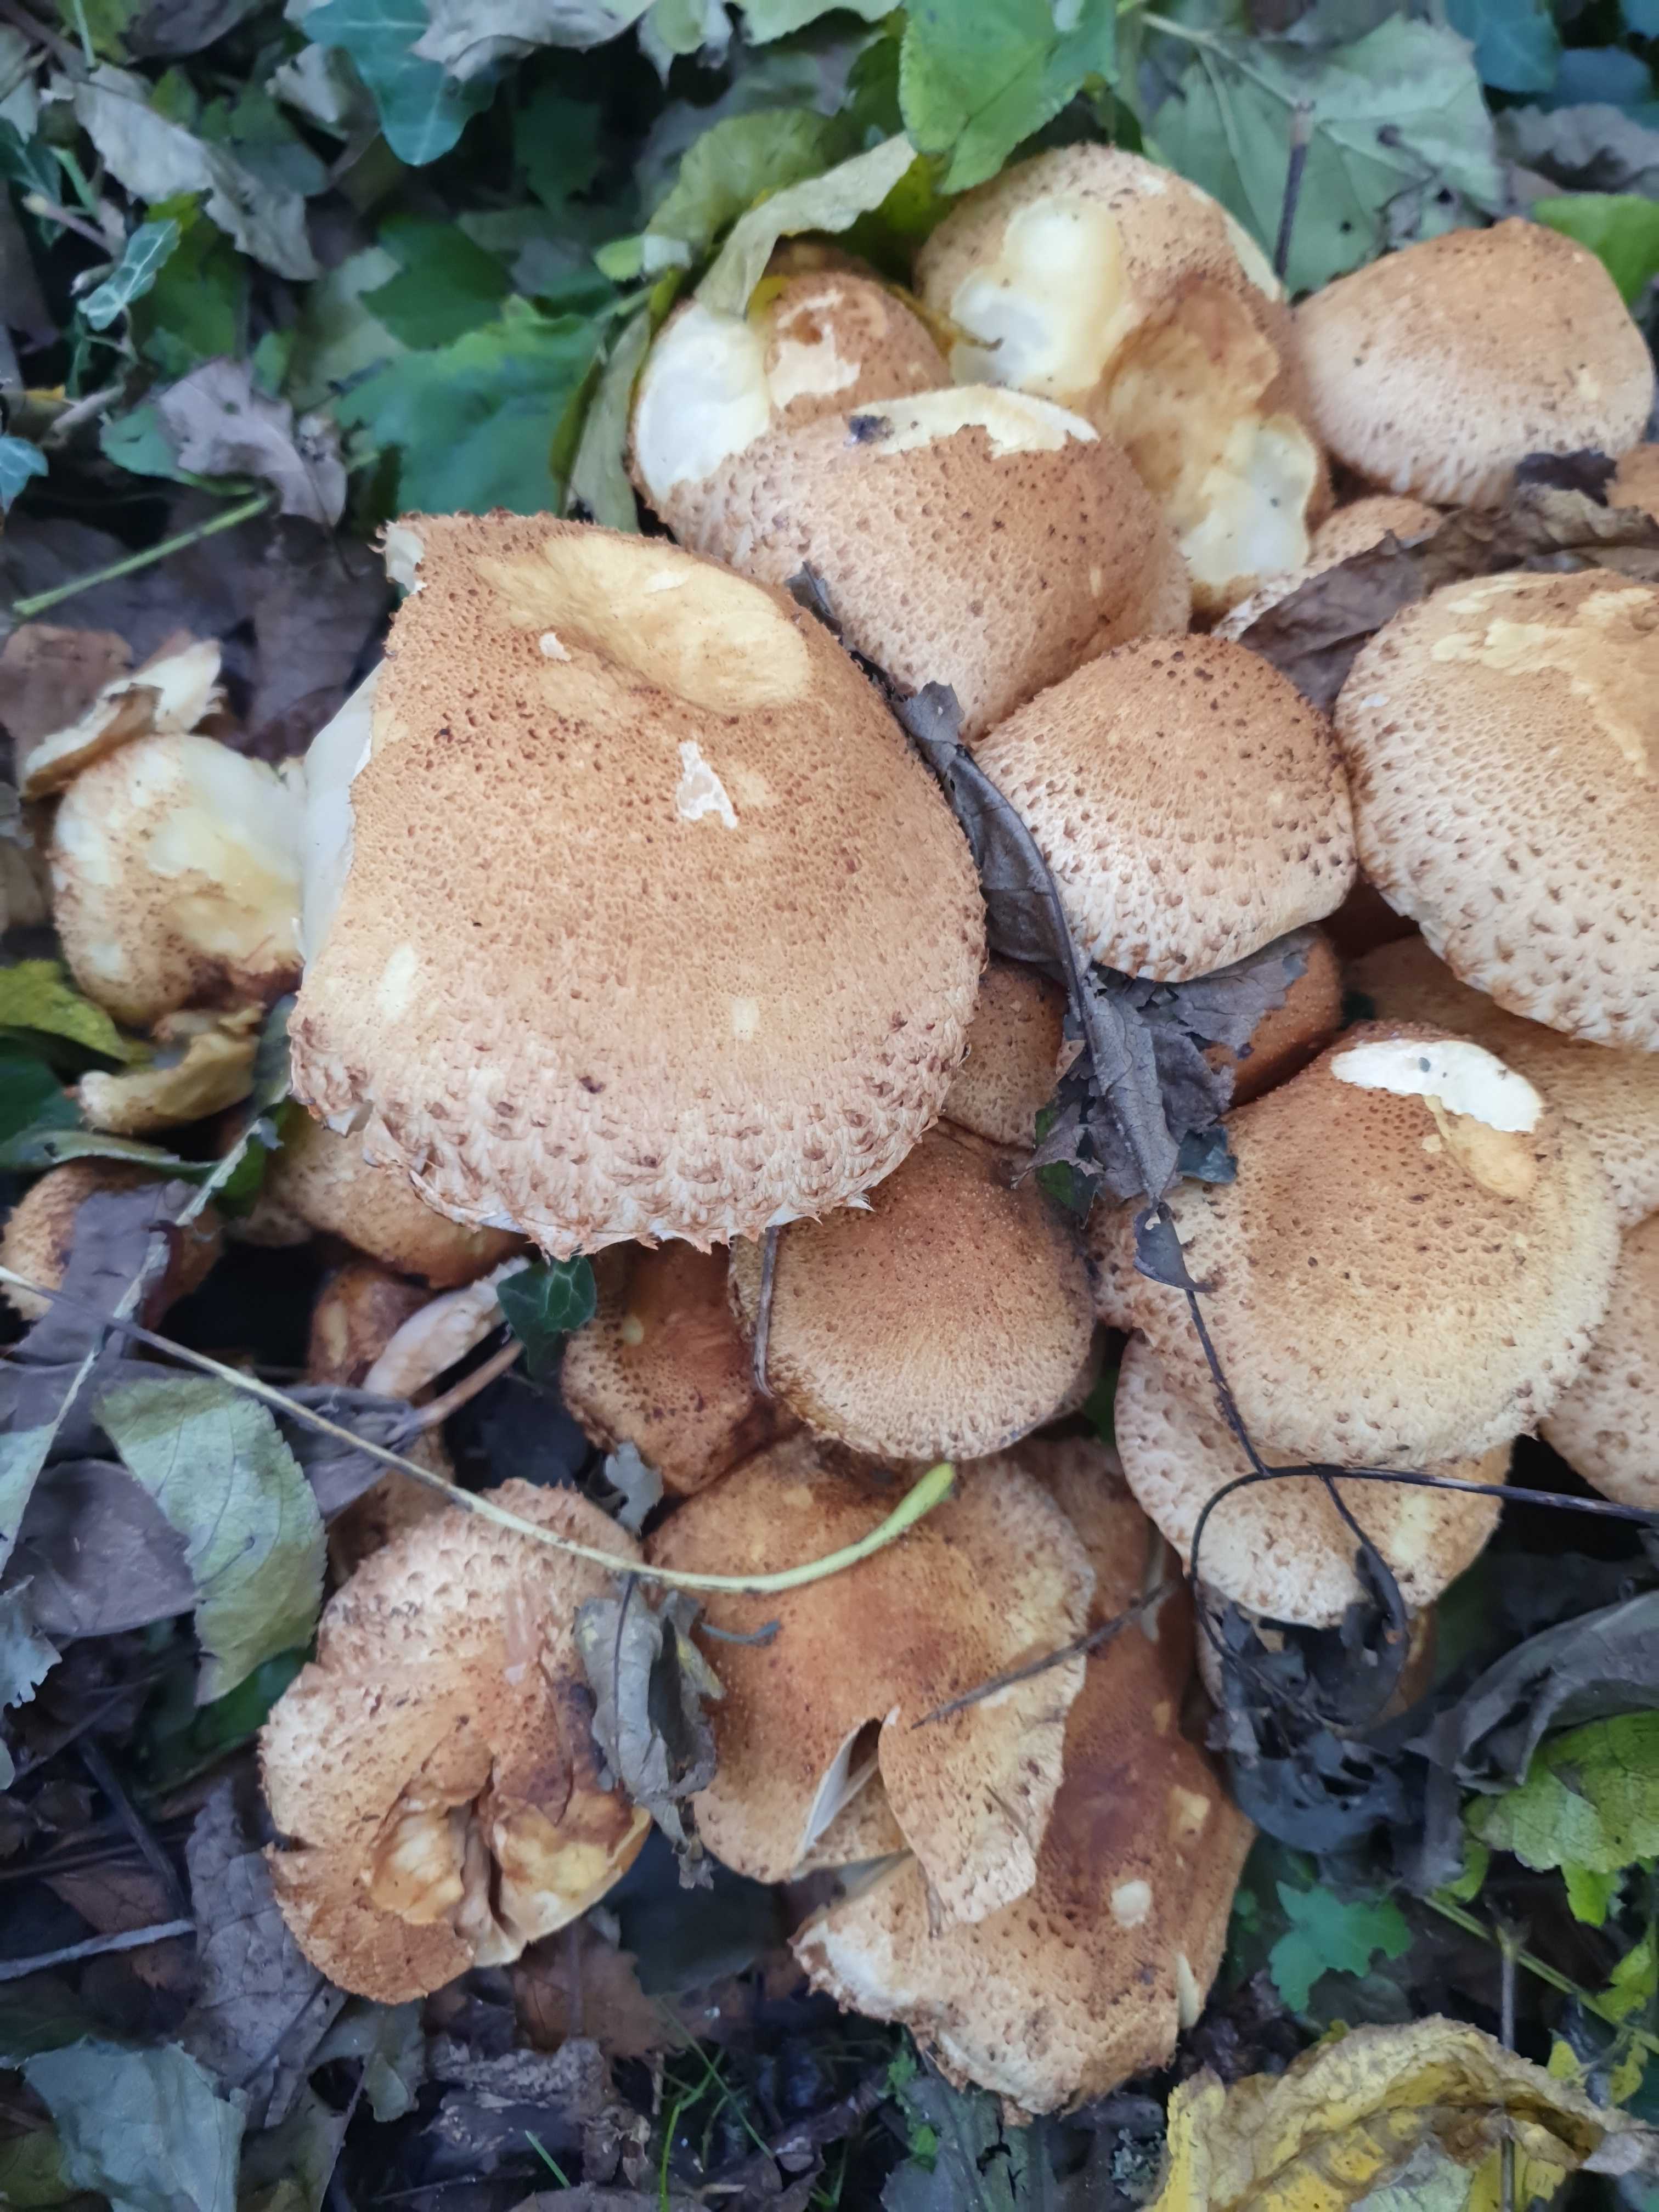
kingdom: Fungi
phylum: Basidiomycota
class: Agaricomycetes
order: Agaricales
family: Strophariaceae
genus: Pholiota
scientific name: Pholiota squarrosa
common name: krumskællet skælhat
